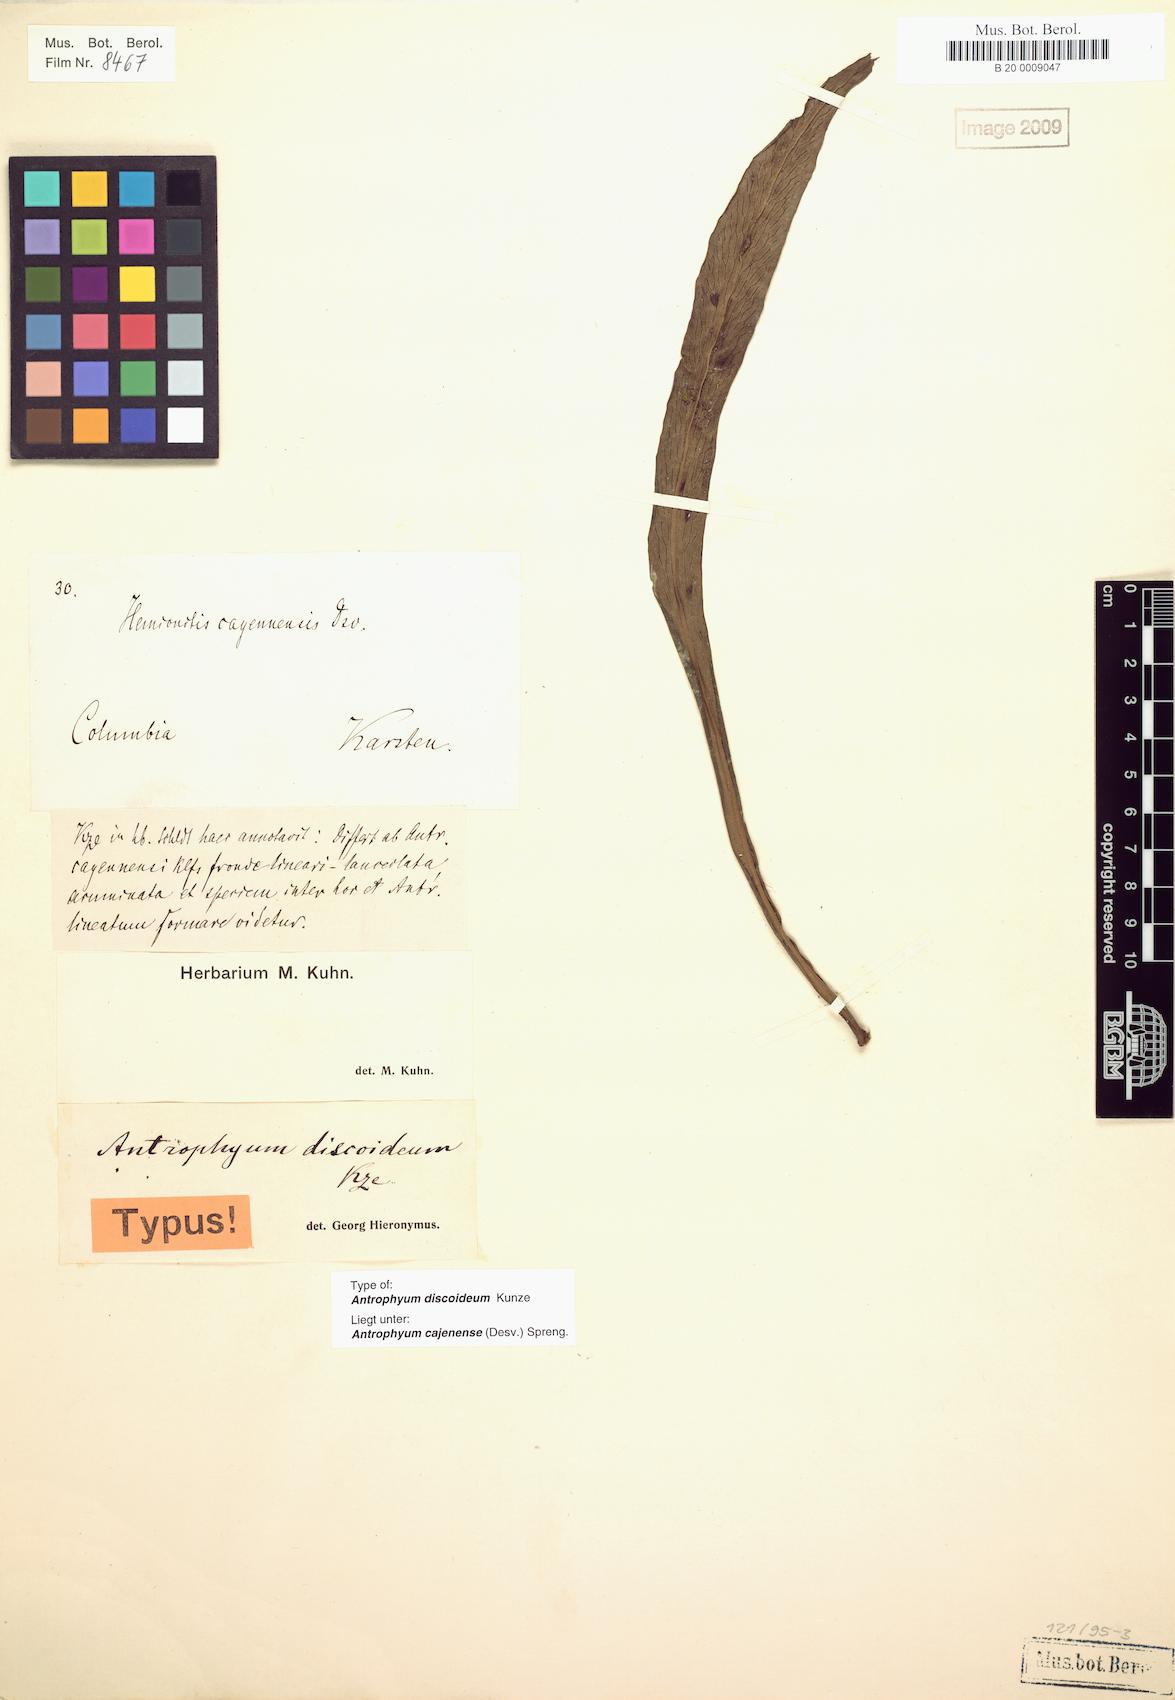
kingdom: Plantae
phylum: Tracheophyta
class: Polypodiopsida
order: Polypodiales
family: Pteridaceae
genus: Polytaenium
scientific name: Polytaenium cajenense
